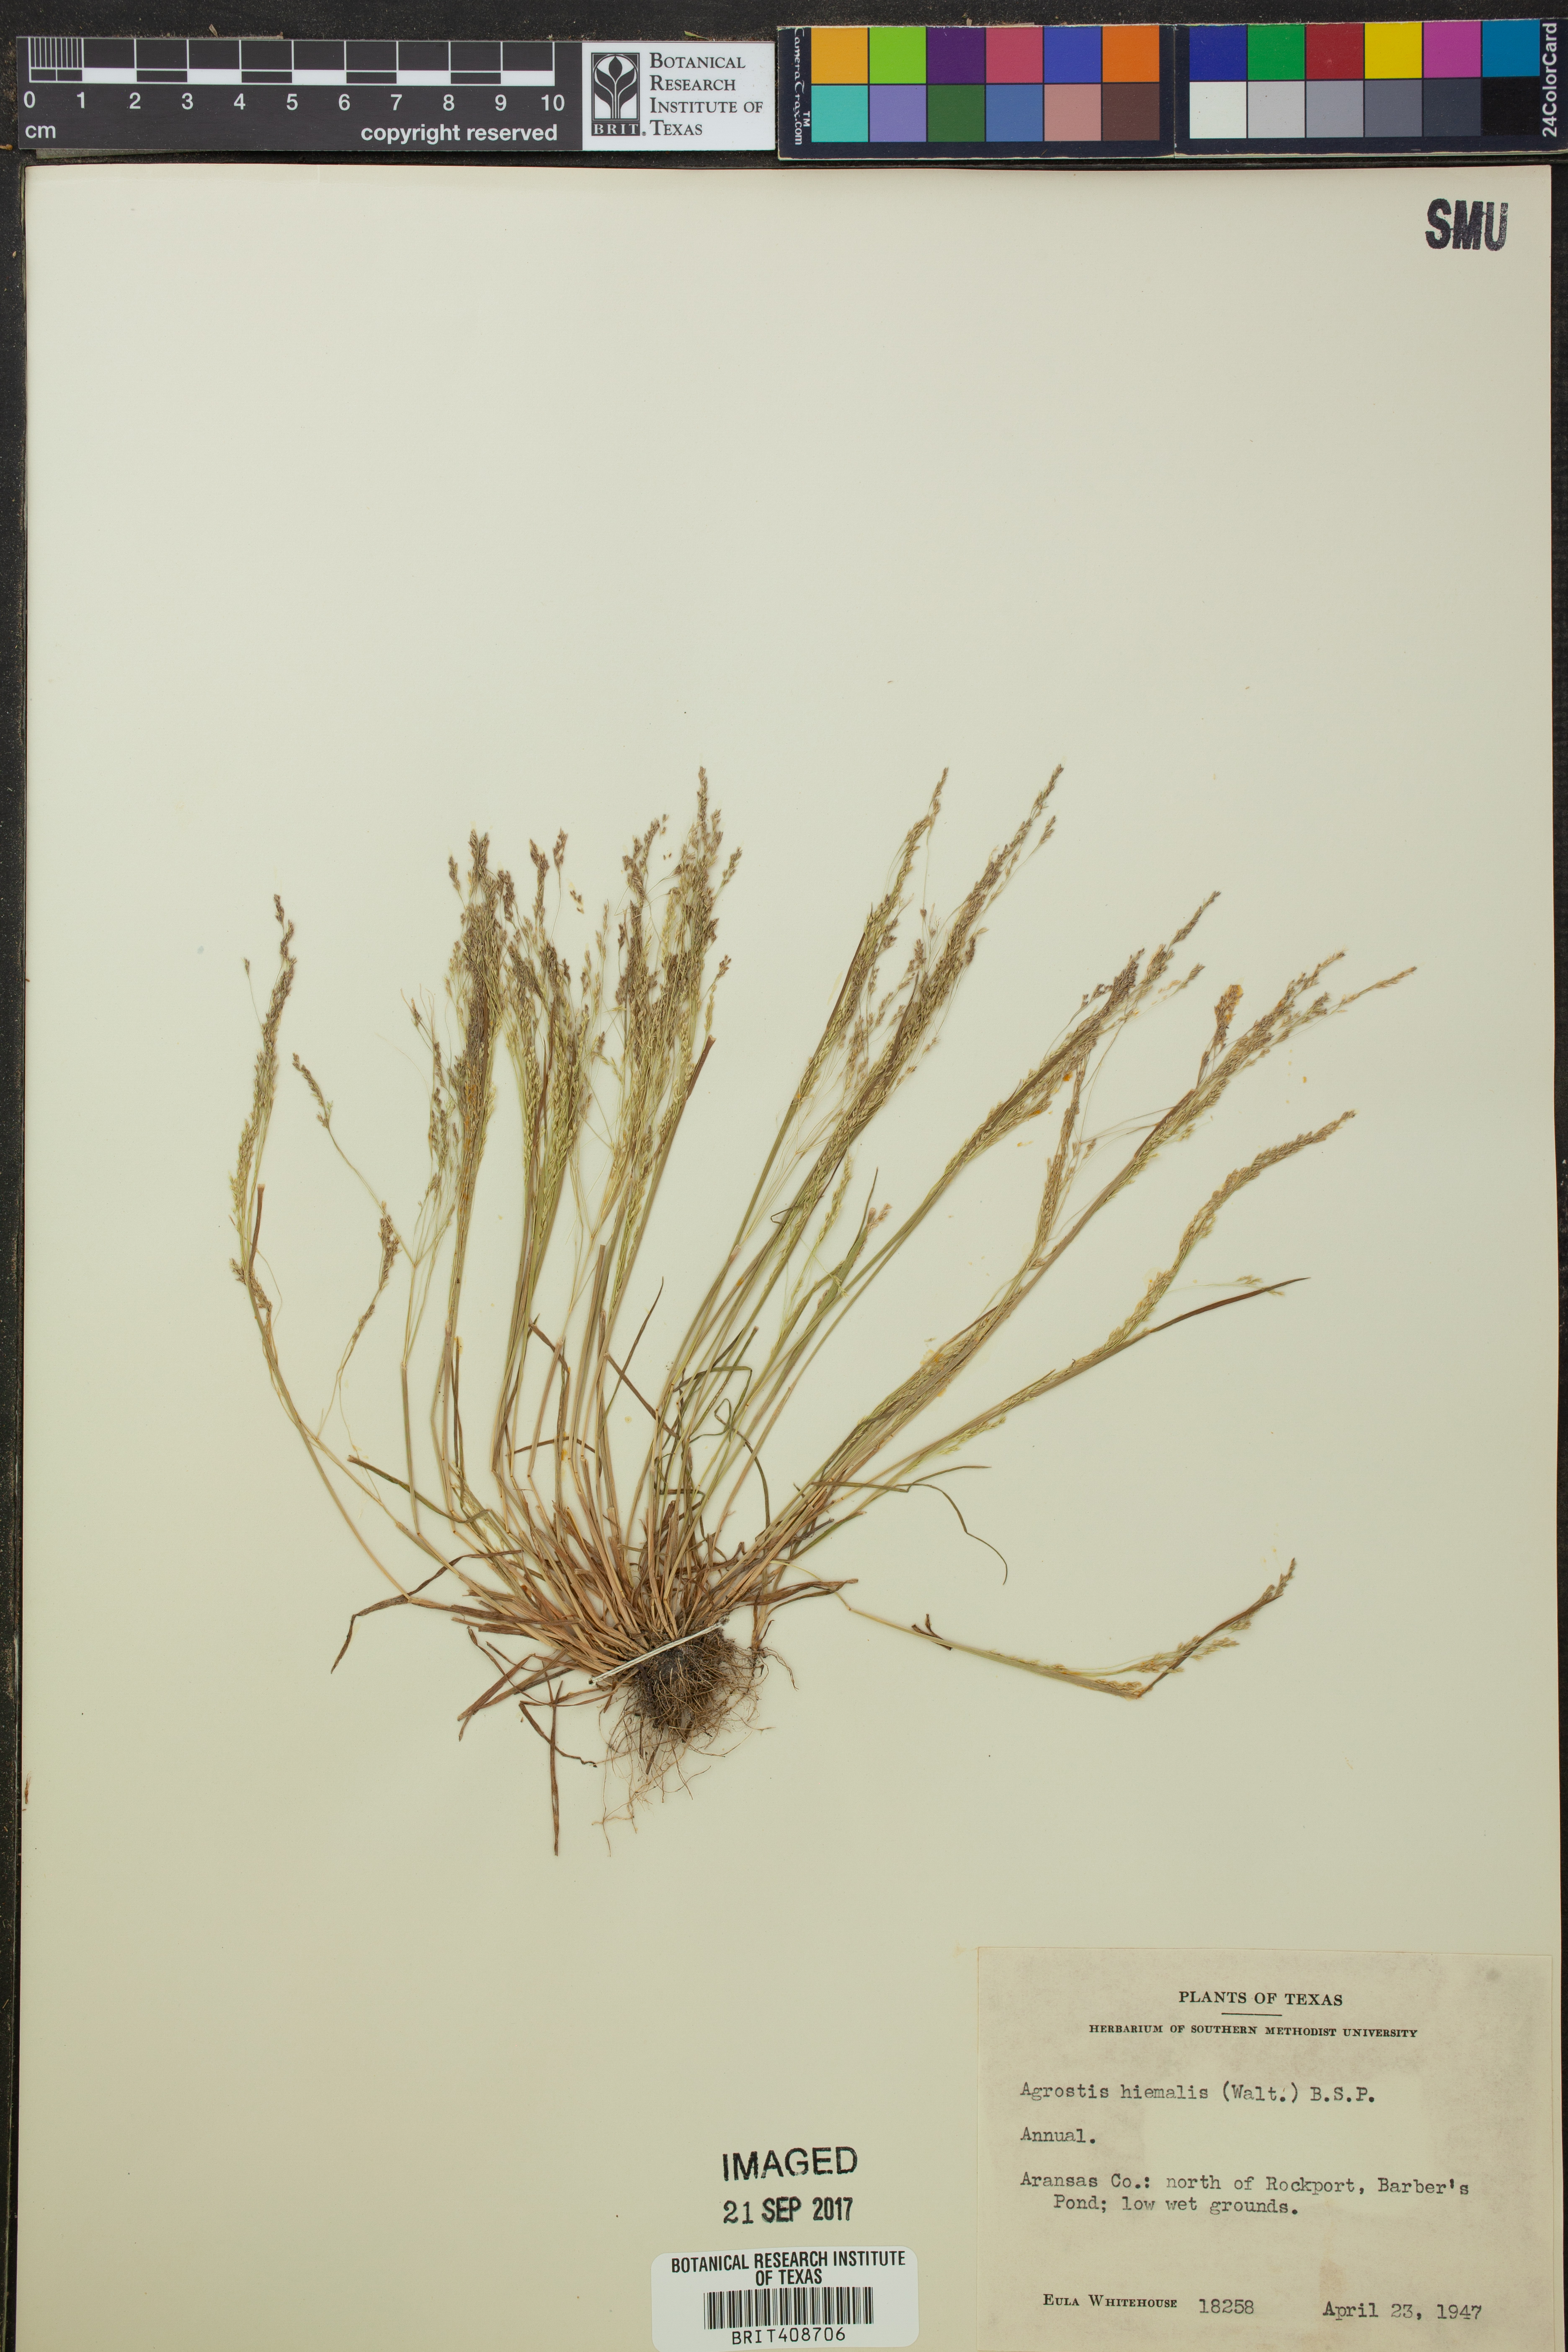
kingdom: Plantae
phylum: Tracheophyta
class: Liliopsida
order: Poales
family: Poaceae
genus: Agrostis
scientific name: Agrostis hyemalis
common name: Small bent
